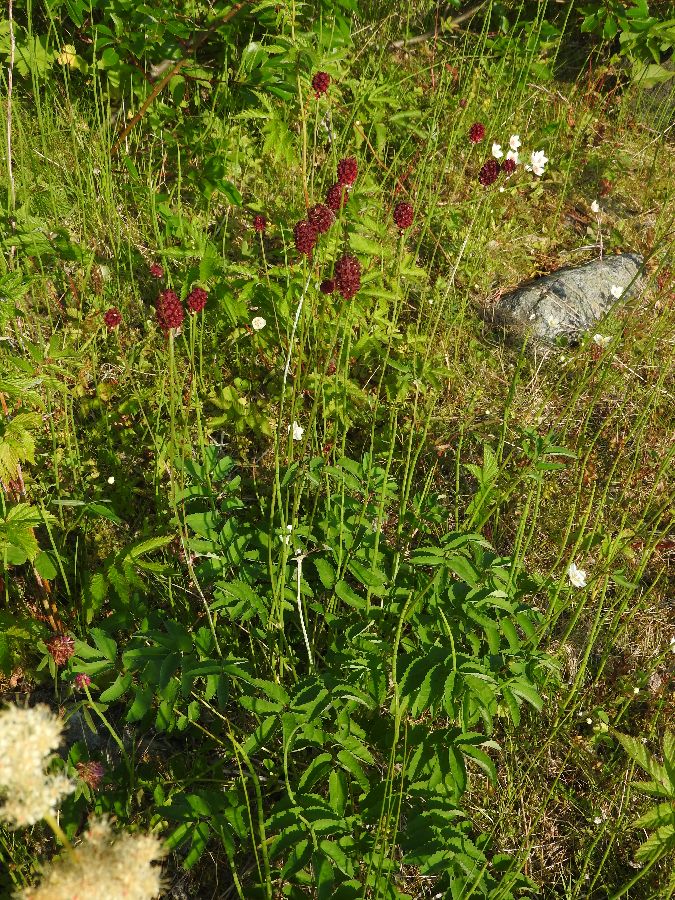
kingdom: Plantae
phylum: Tracheophyta
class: Magnoliopsida
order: Rosales
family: Rosaceae
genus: Sanguisorba
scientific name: Sanguisorba officinalis
